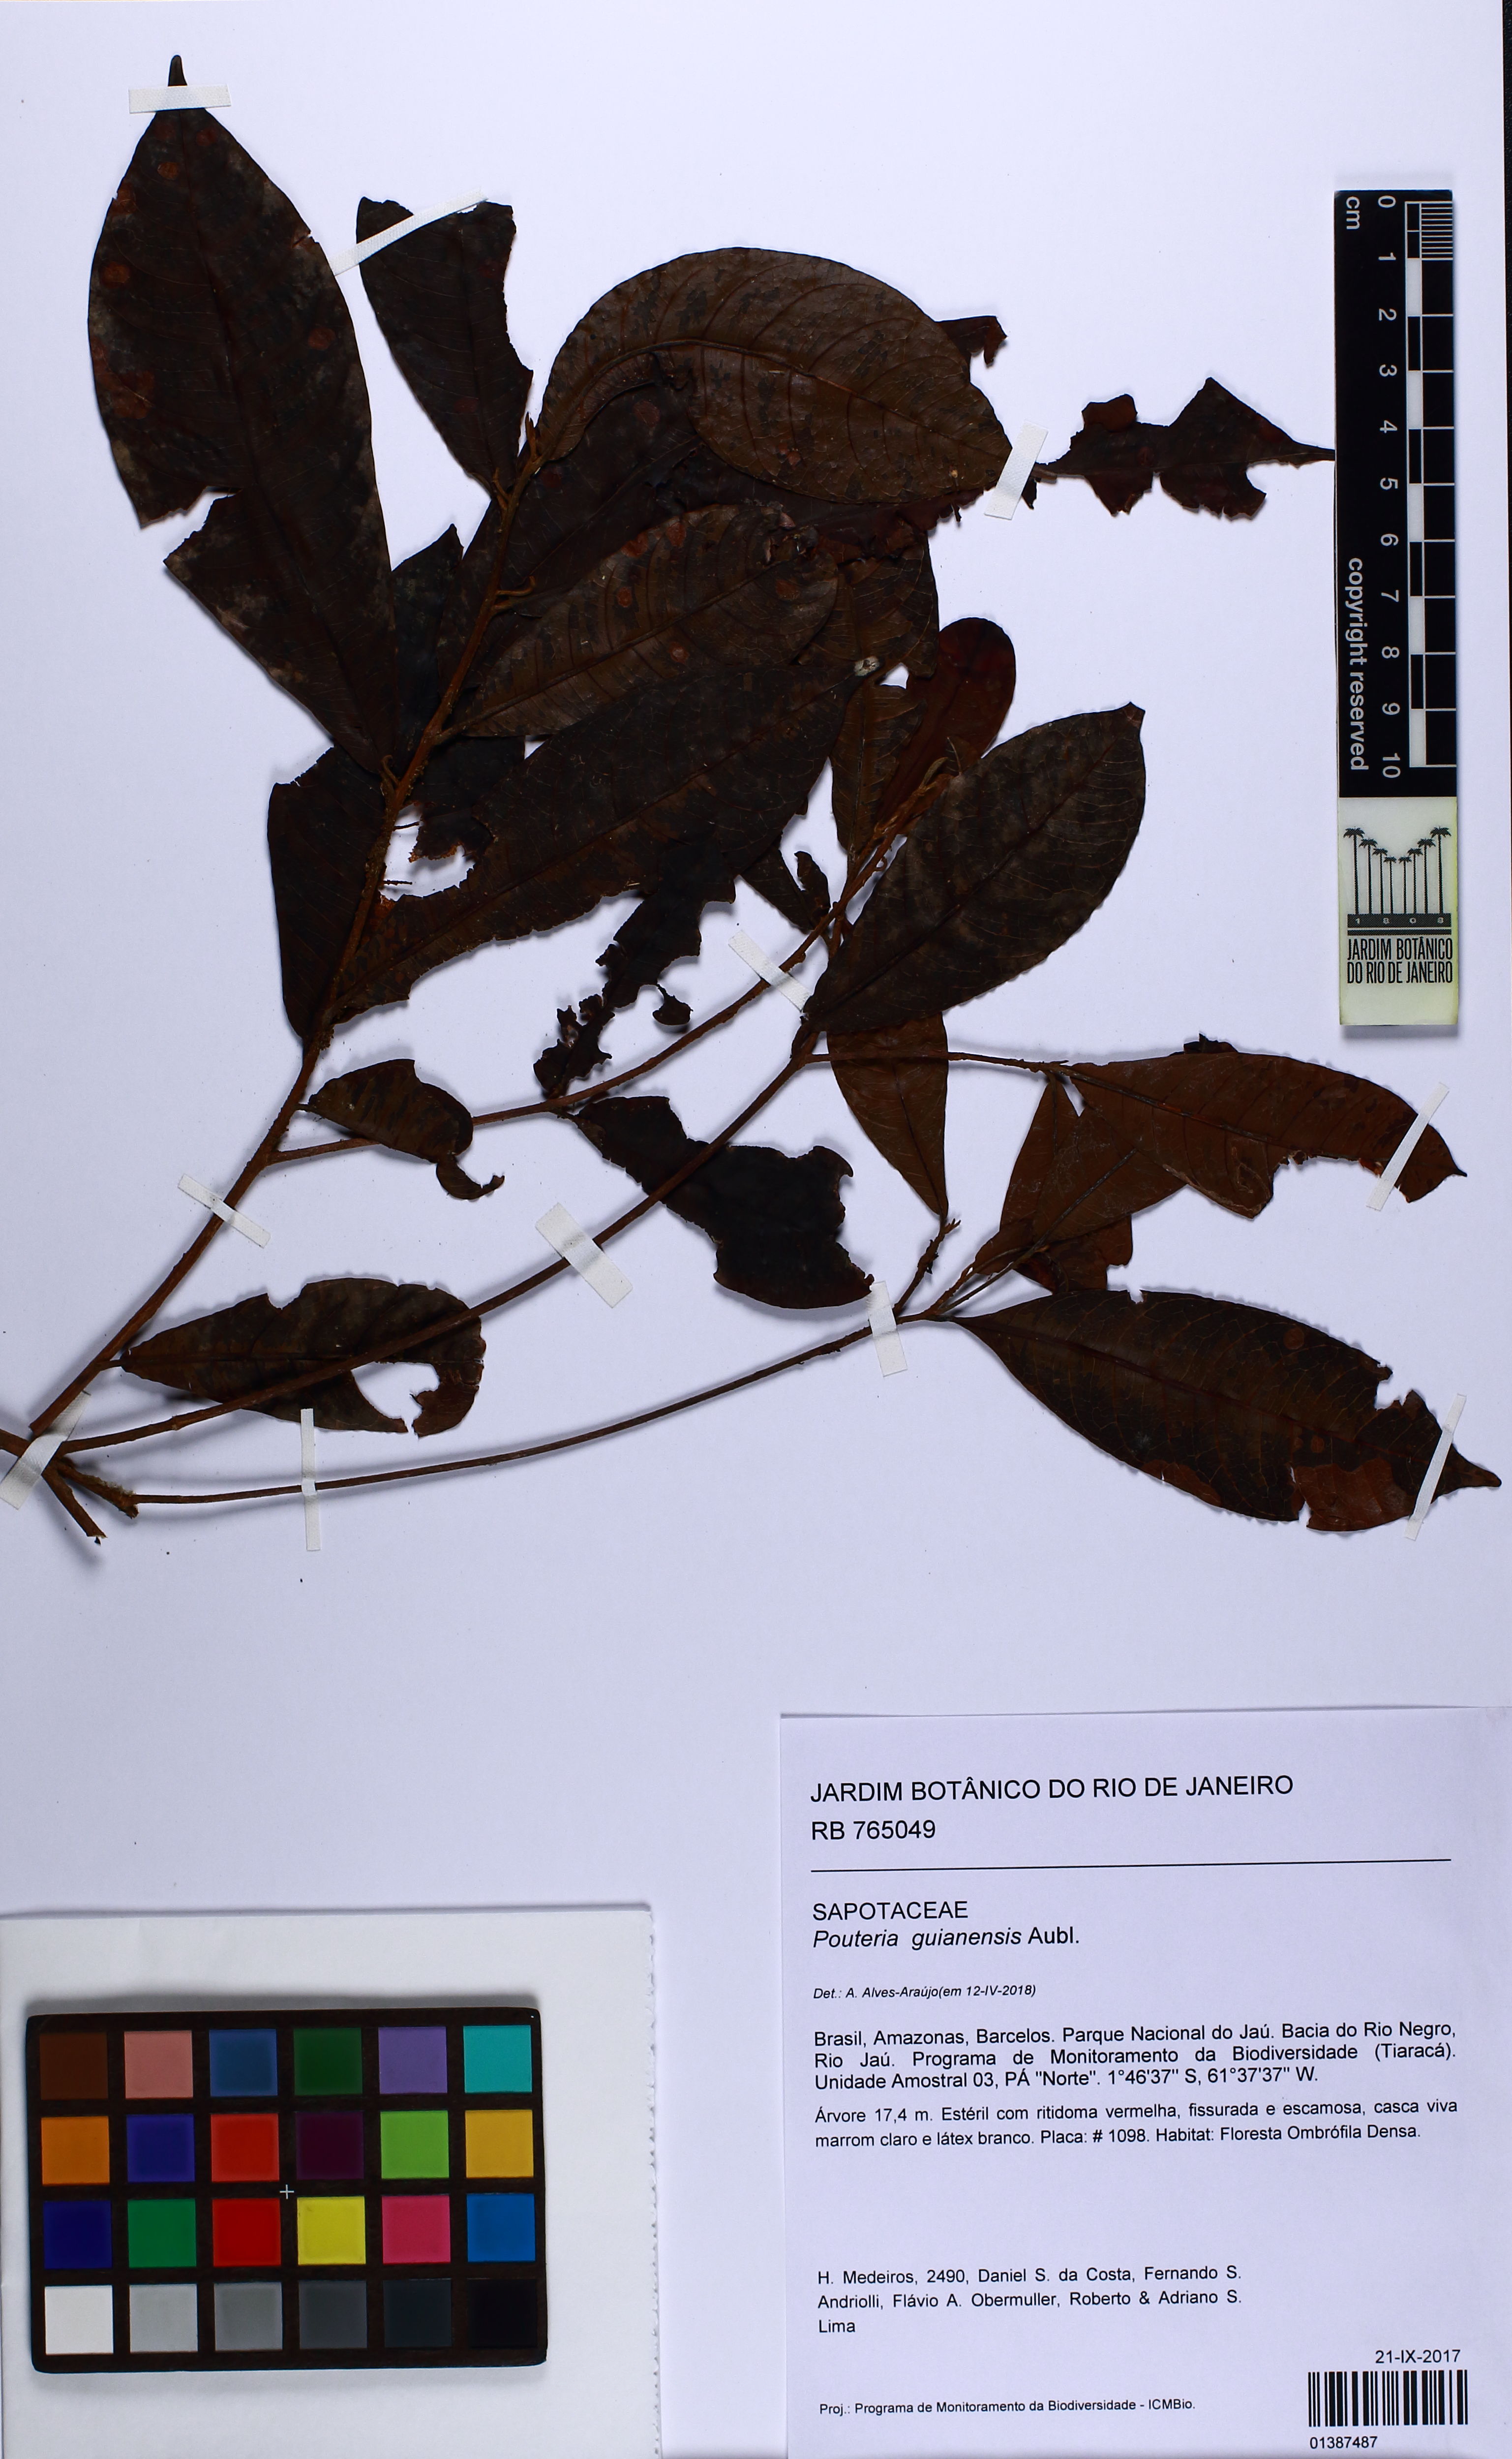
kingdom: Plantae
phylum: Tracheophyta
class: Magnoliopsida
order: Ericales
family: Sapotaceae
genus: Pouteria
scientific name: Pouteria guianensis
